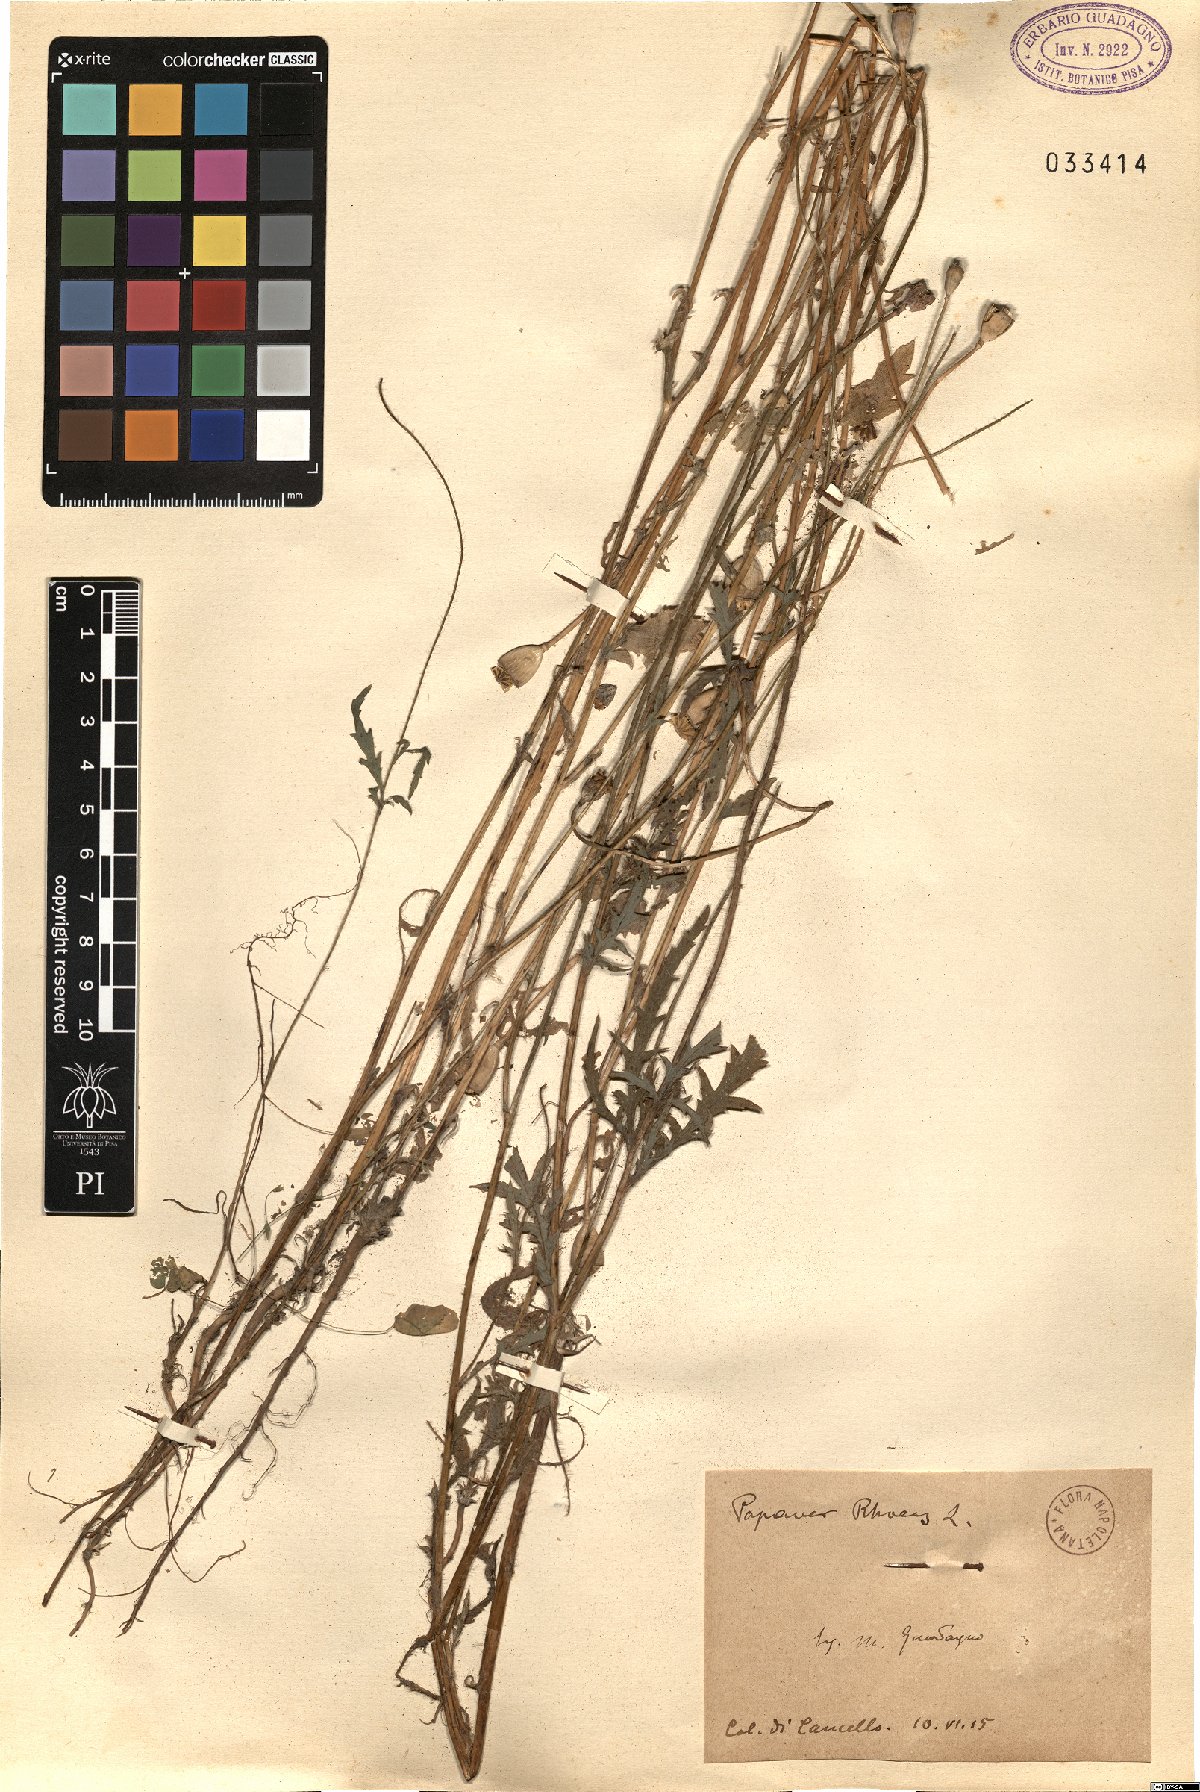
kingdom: Plantae
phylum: Tracheophyta
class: Magnoliopsida
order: Ranunculales
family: Papaveraceae
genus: Papaver
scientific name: Papaver rhoeas
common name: Corn poppy
